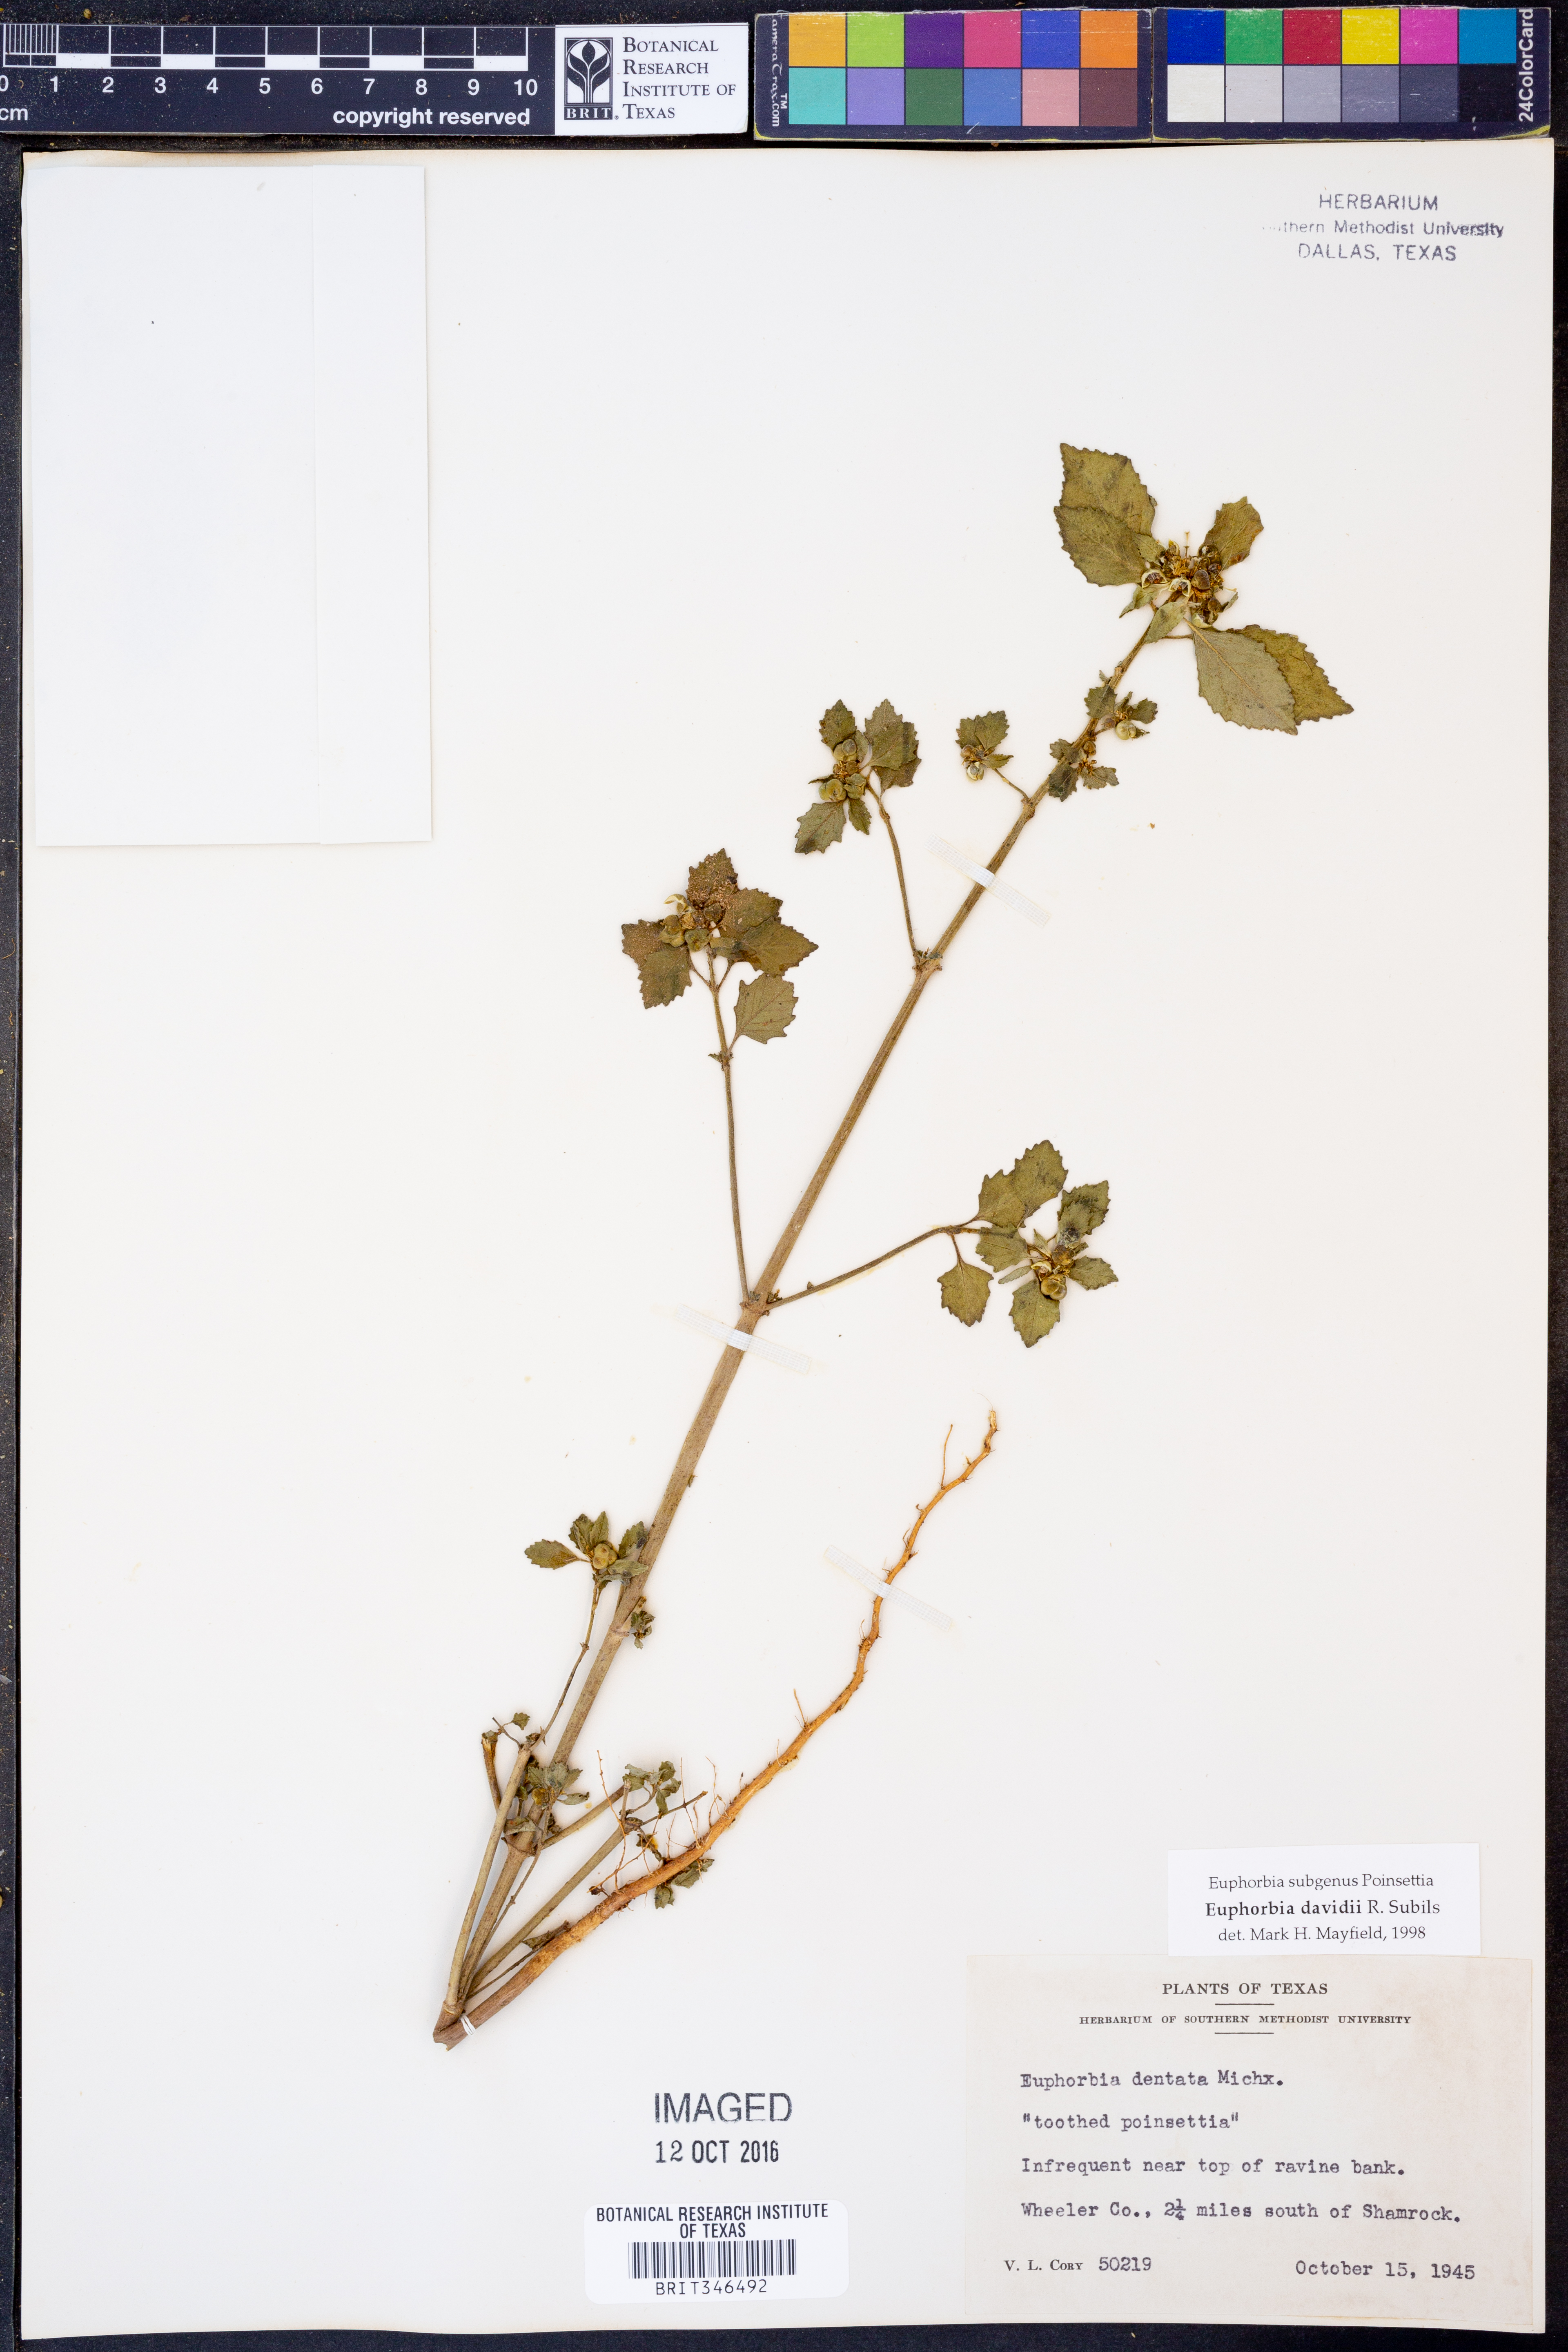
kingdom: Plantae
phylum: Tracheophyta
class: Magnoliopsida
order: Malpighiales
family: Euphorbiaceae
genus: Euphorbia
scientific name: Euphorbia davidii
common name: David's spurge
